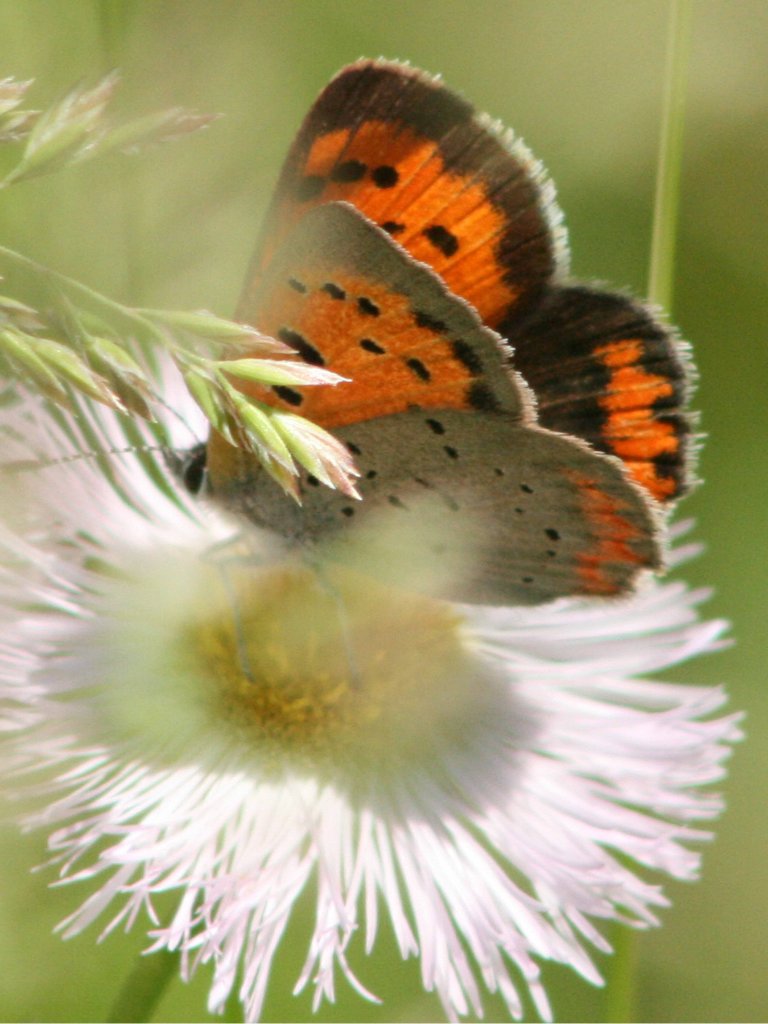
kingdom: Animalia
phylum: Arthropoda
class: Insecta
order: Lepidoptera
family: Lycaenidae
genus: Lycaena
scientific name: Lycaena phlaeas
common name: American Copper
